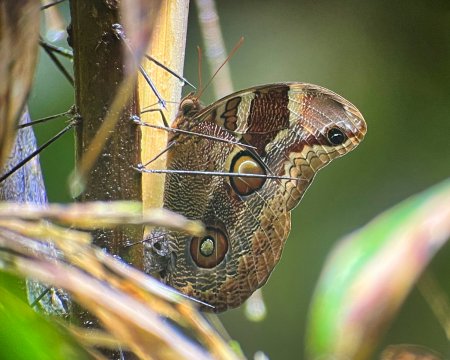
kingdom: Animalia
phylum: Arthropoda
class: Insecta
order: Lepidoptera
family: Nymphalidae
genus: Catoblepia
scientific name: Catoblepia orgetorix
